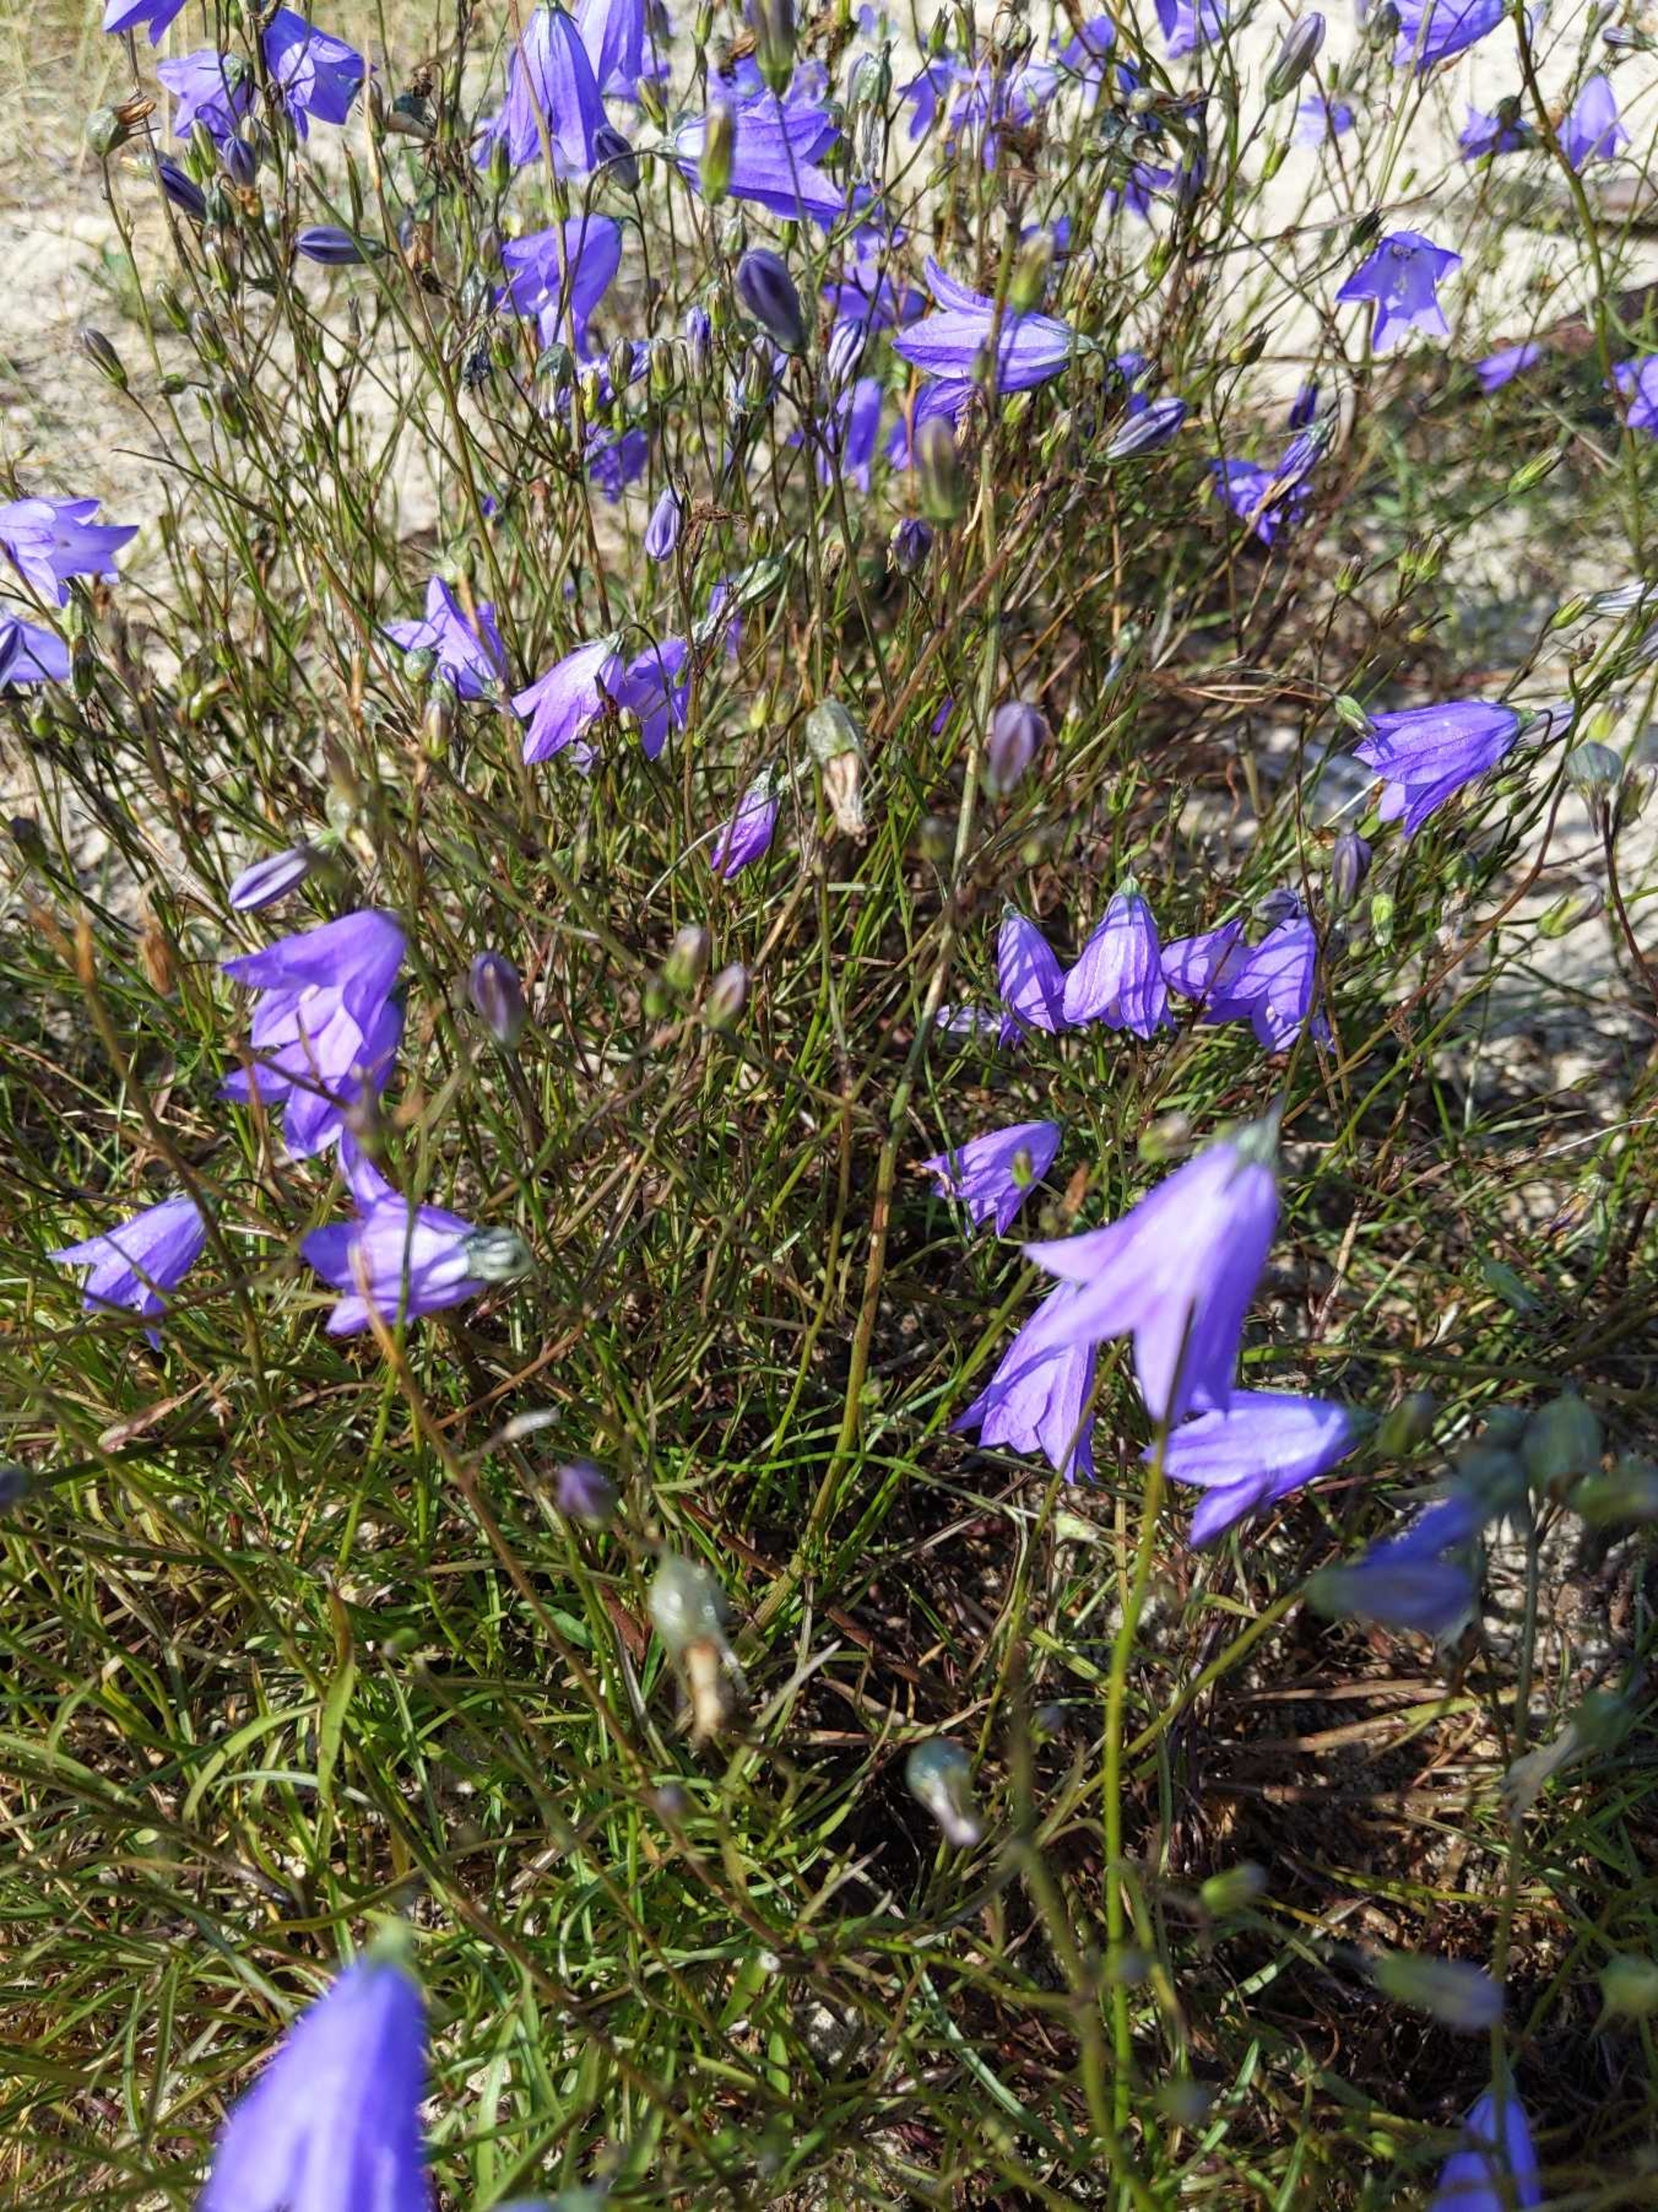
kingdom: Plantae
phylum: Tracheophyta
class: Magnoliopsida
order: Asterales
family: Campanulaceae
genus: Campanula
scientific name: Campanula rotundifolia
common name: Liden klokke
